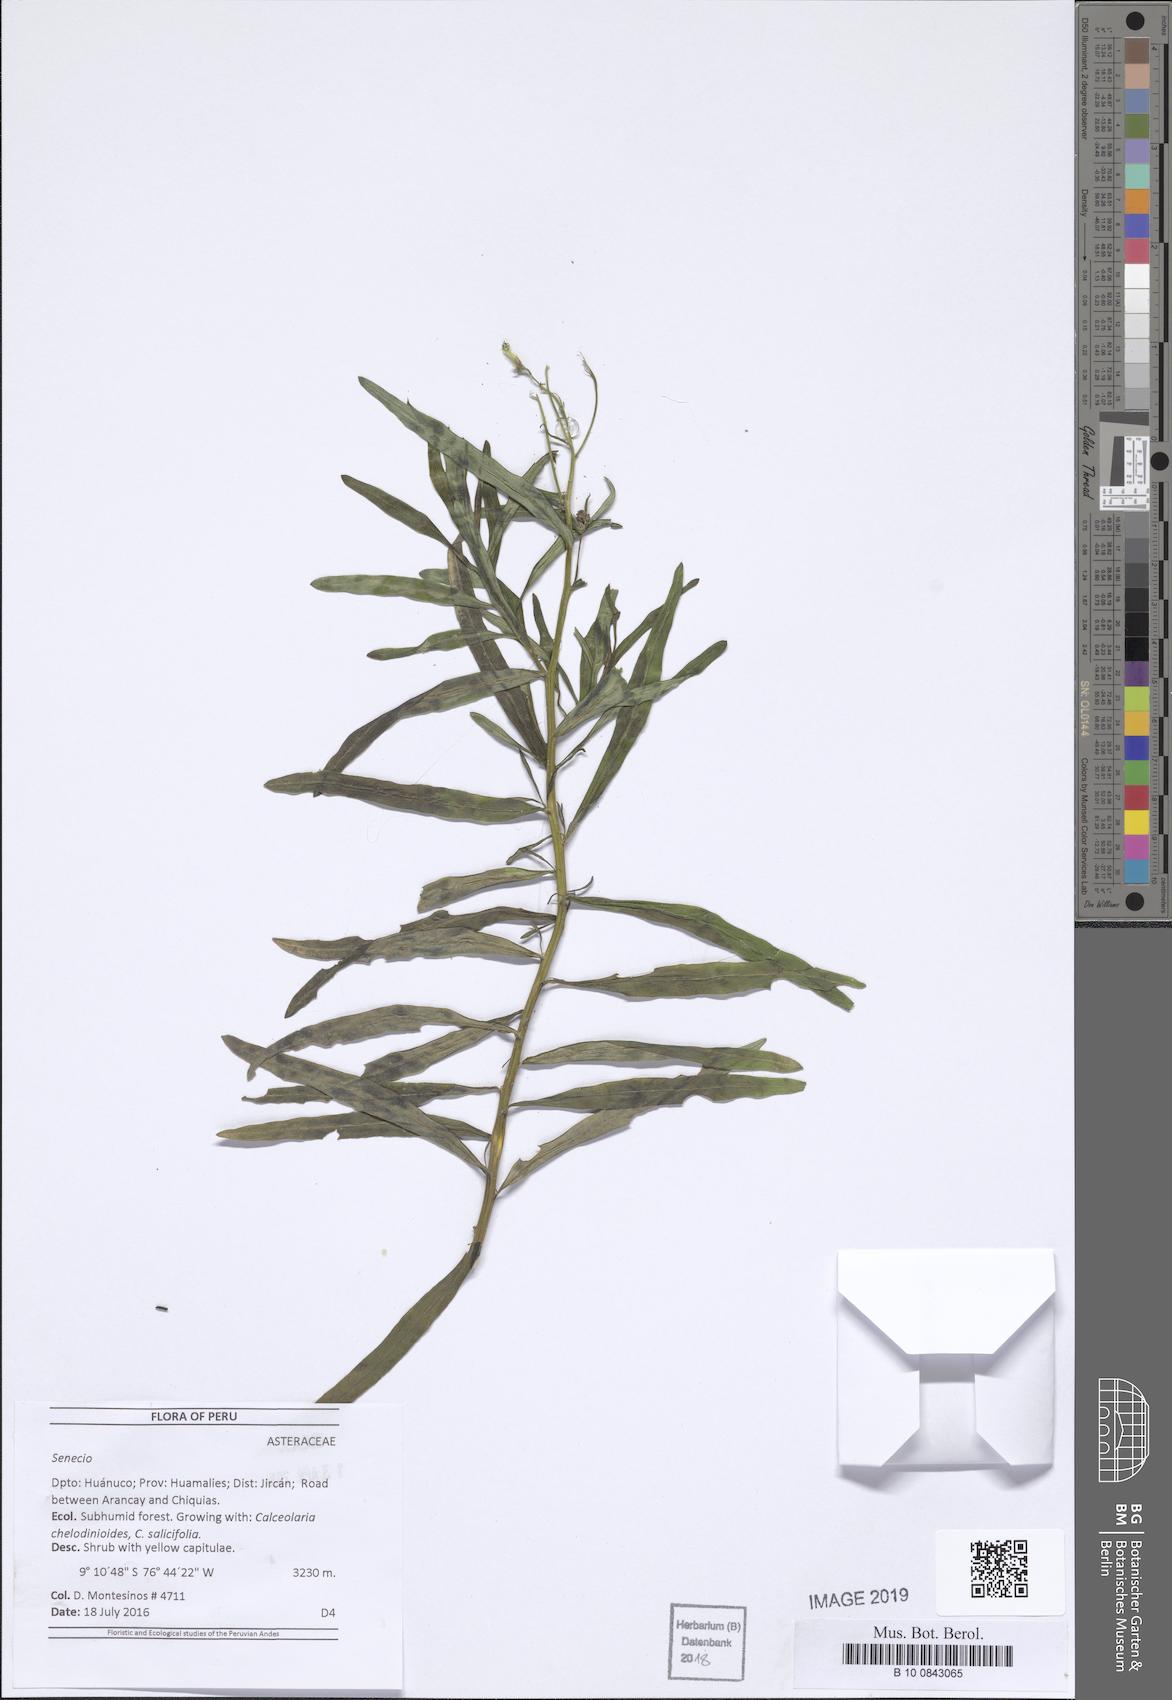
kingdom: Plantae
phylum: Tracheophyta
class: Magnoliopsida
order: Asterales
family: Asteraceae
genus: Senecio
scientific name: Senecio tubicapillosus
